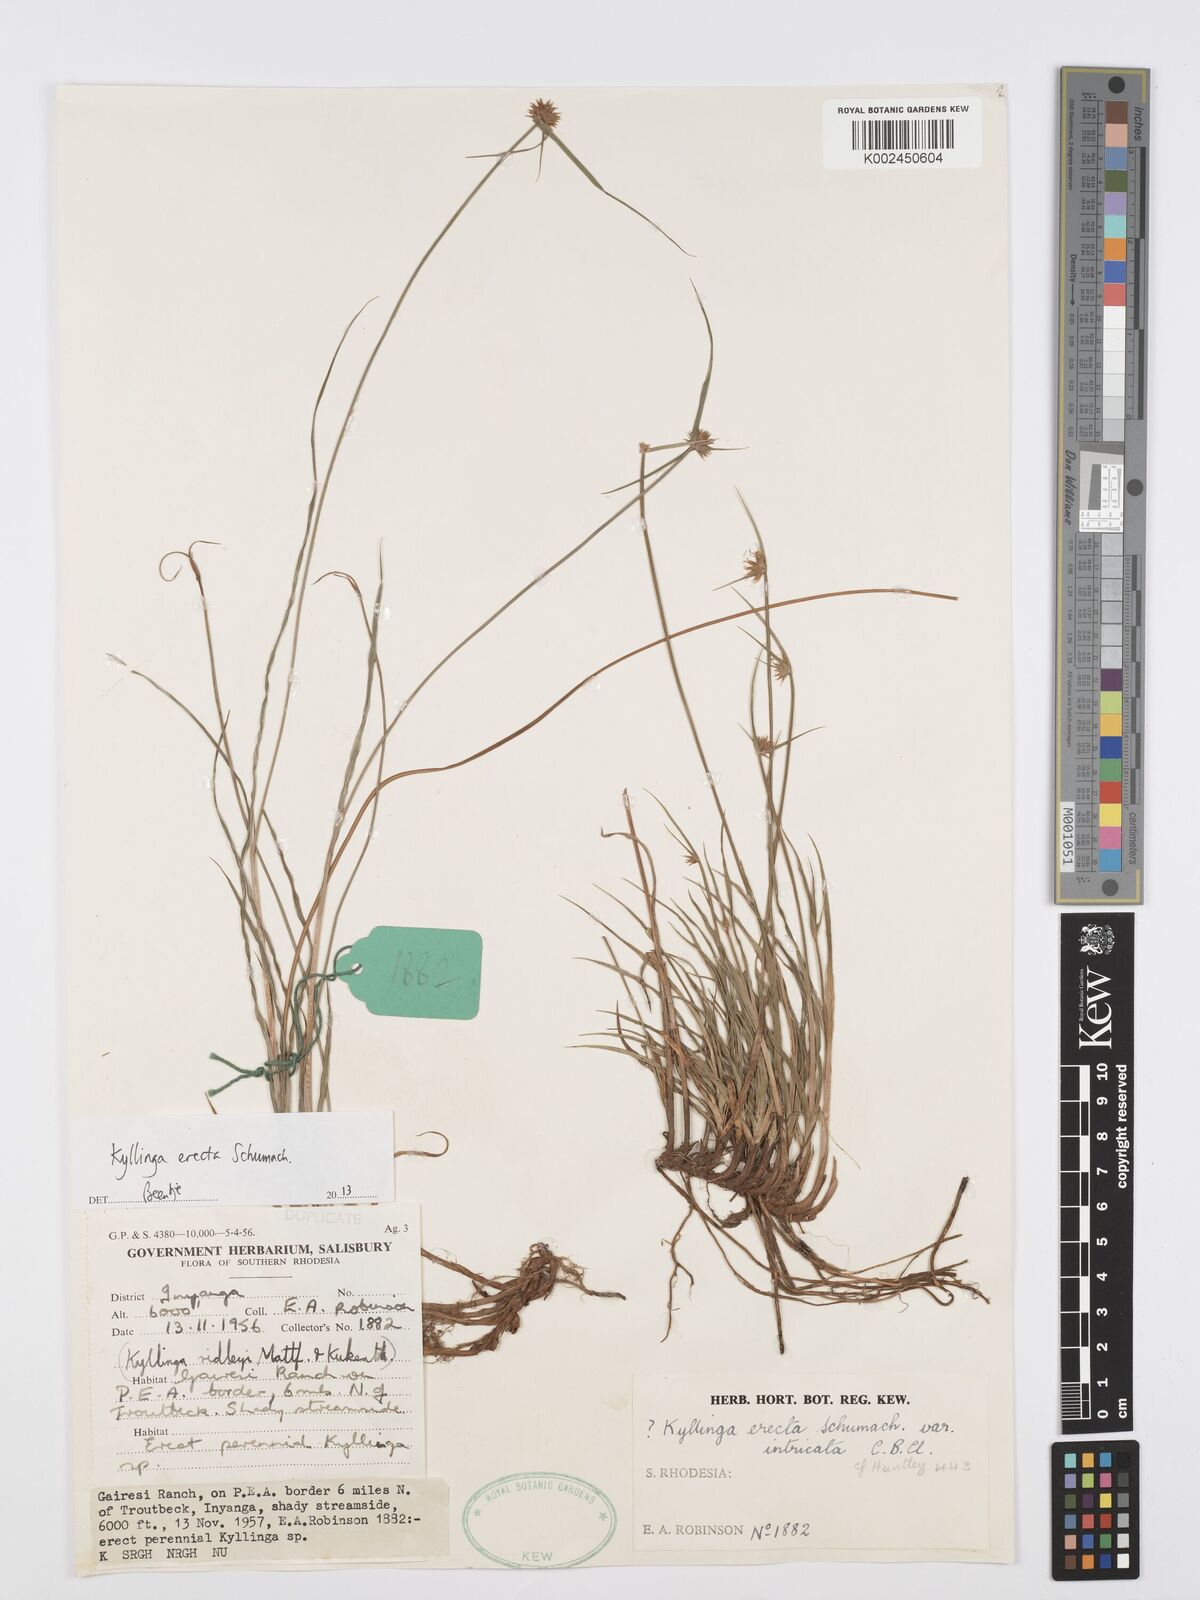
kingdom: Plantae
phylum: Tracheophyta
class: Liliopsida
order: Poales
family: Cyperaceae
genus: Cyperus
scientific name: Cyperus erectus
